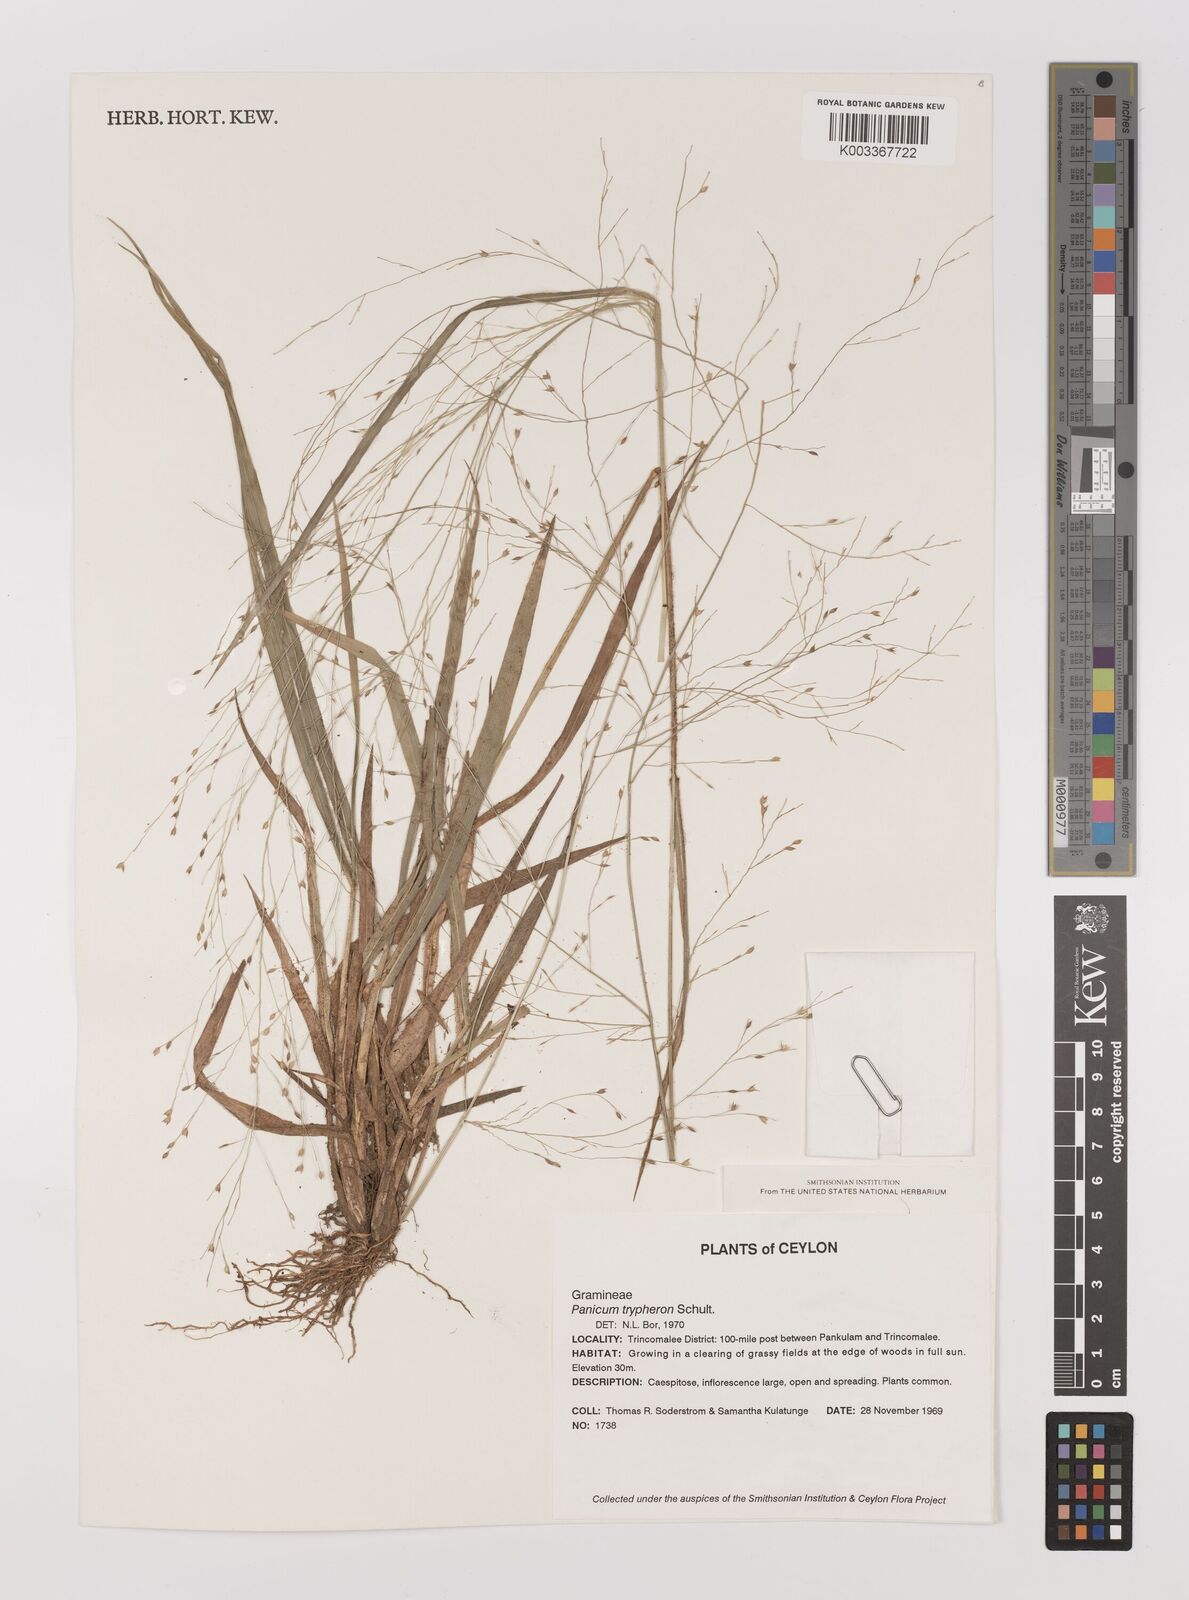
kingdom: Plantae
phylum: Tracheophyta
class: Liliopsida
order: Poales
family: Poaceae
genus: Panicum
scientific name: Panicum curviflorum
